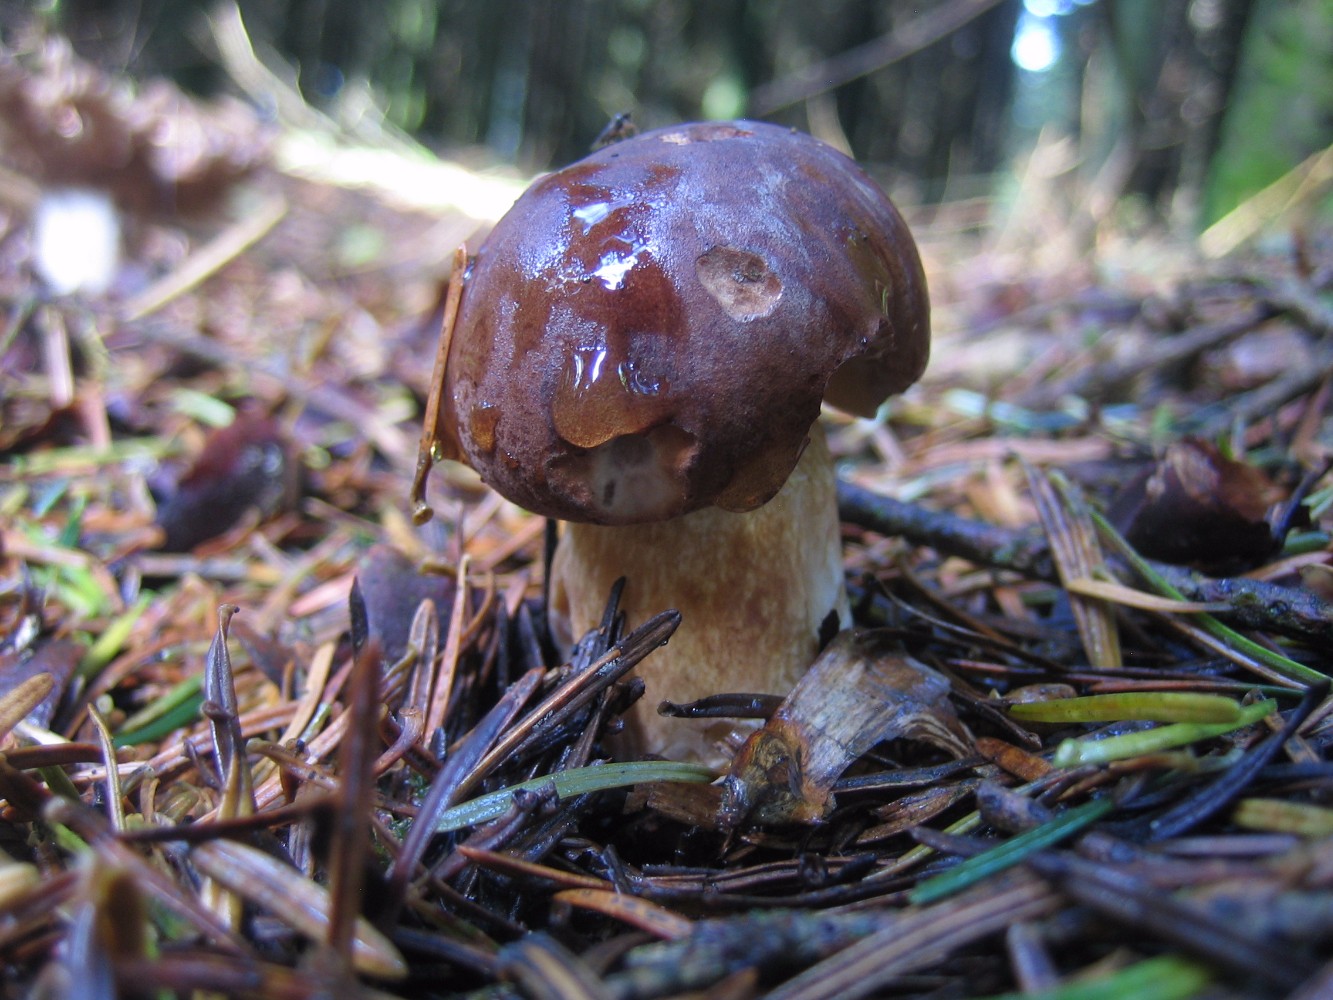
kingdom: Fungi
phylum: Basidiomycota
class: Agaricomycetes
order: Boletales
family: Boletaceae
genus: Imleria
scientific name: Imleria badia
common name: brunstokket rørhat
